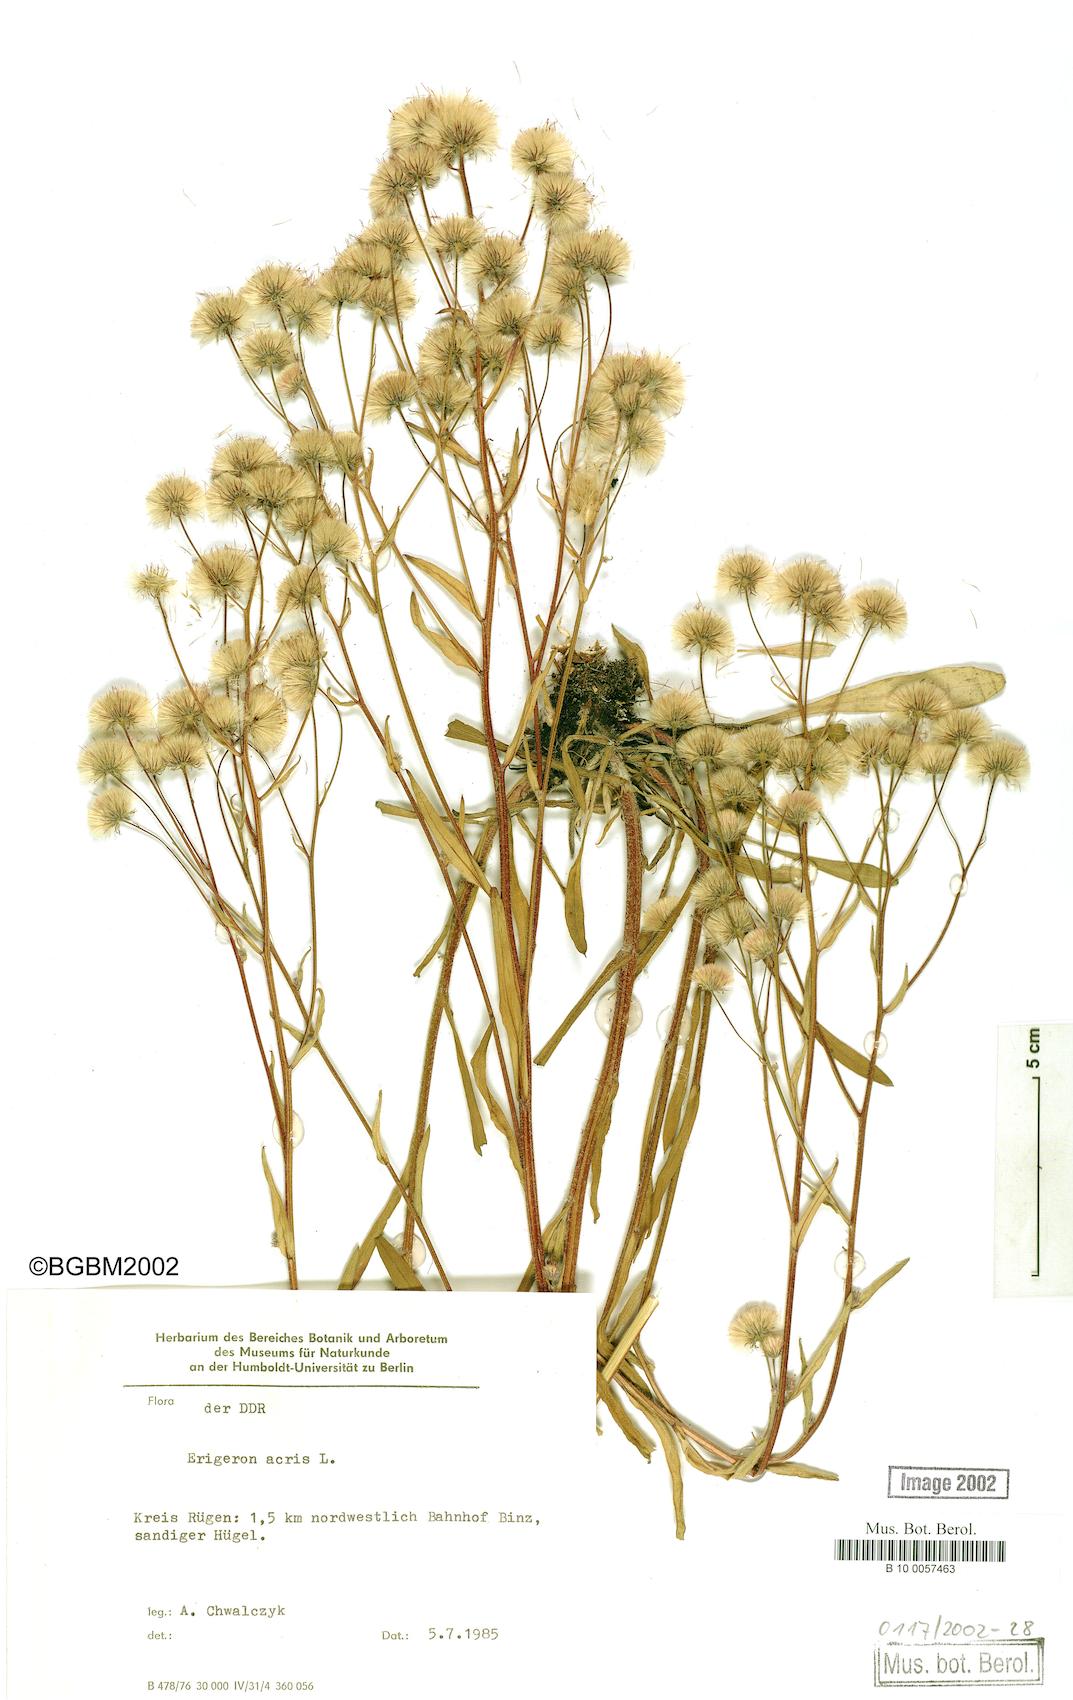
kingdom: Plantae
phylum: Tracheophyta
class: Magnoliopsida
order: Asterales
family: Asteraceae
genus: Erigeron
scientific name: Erigeron acris
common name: Blue fleabane
